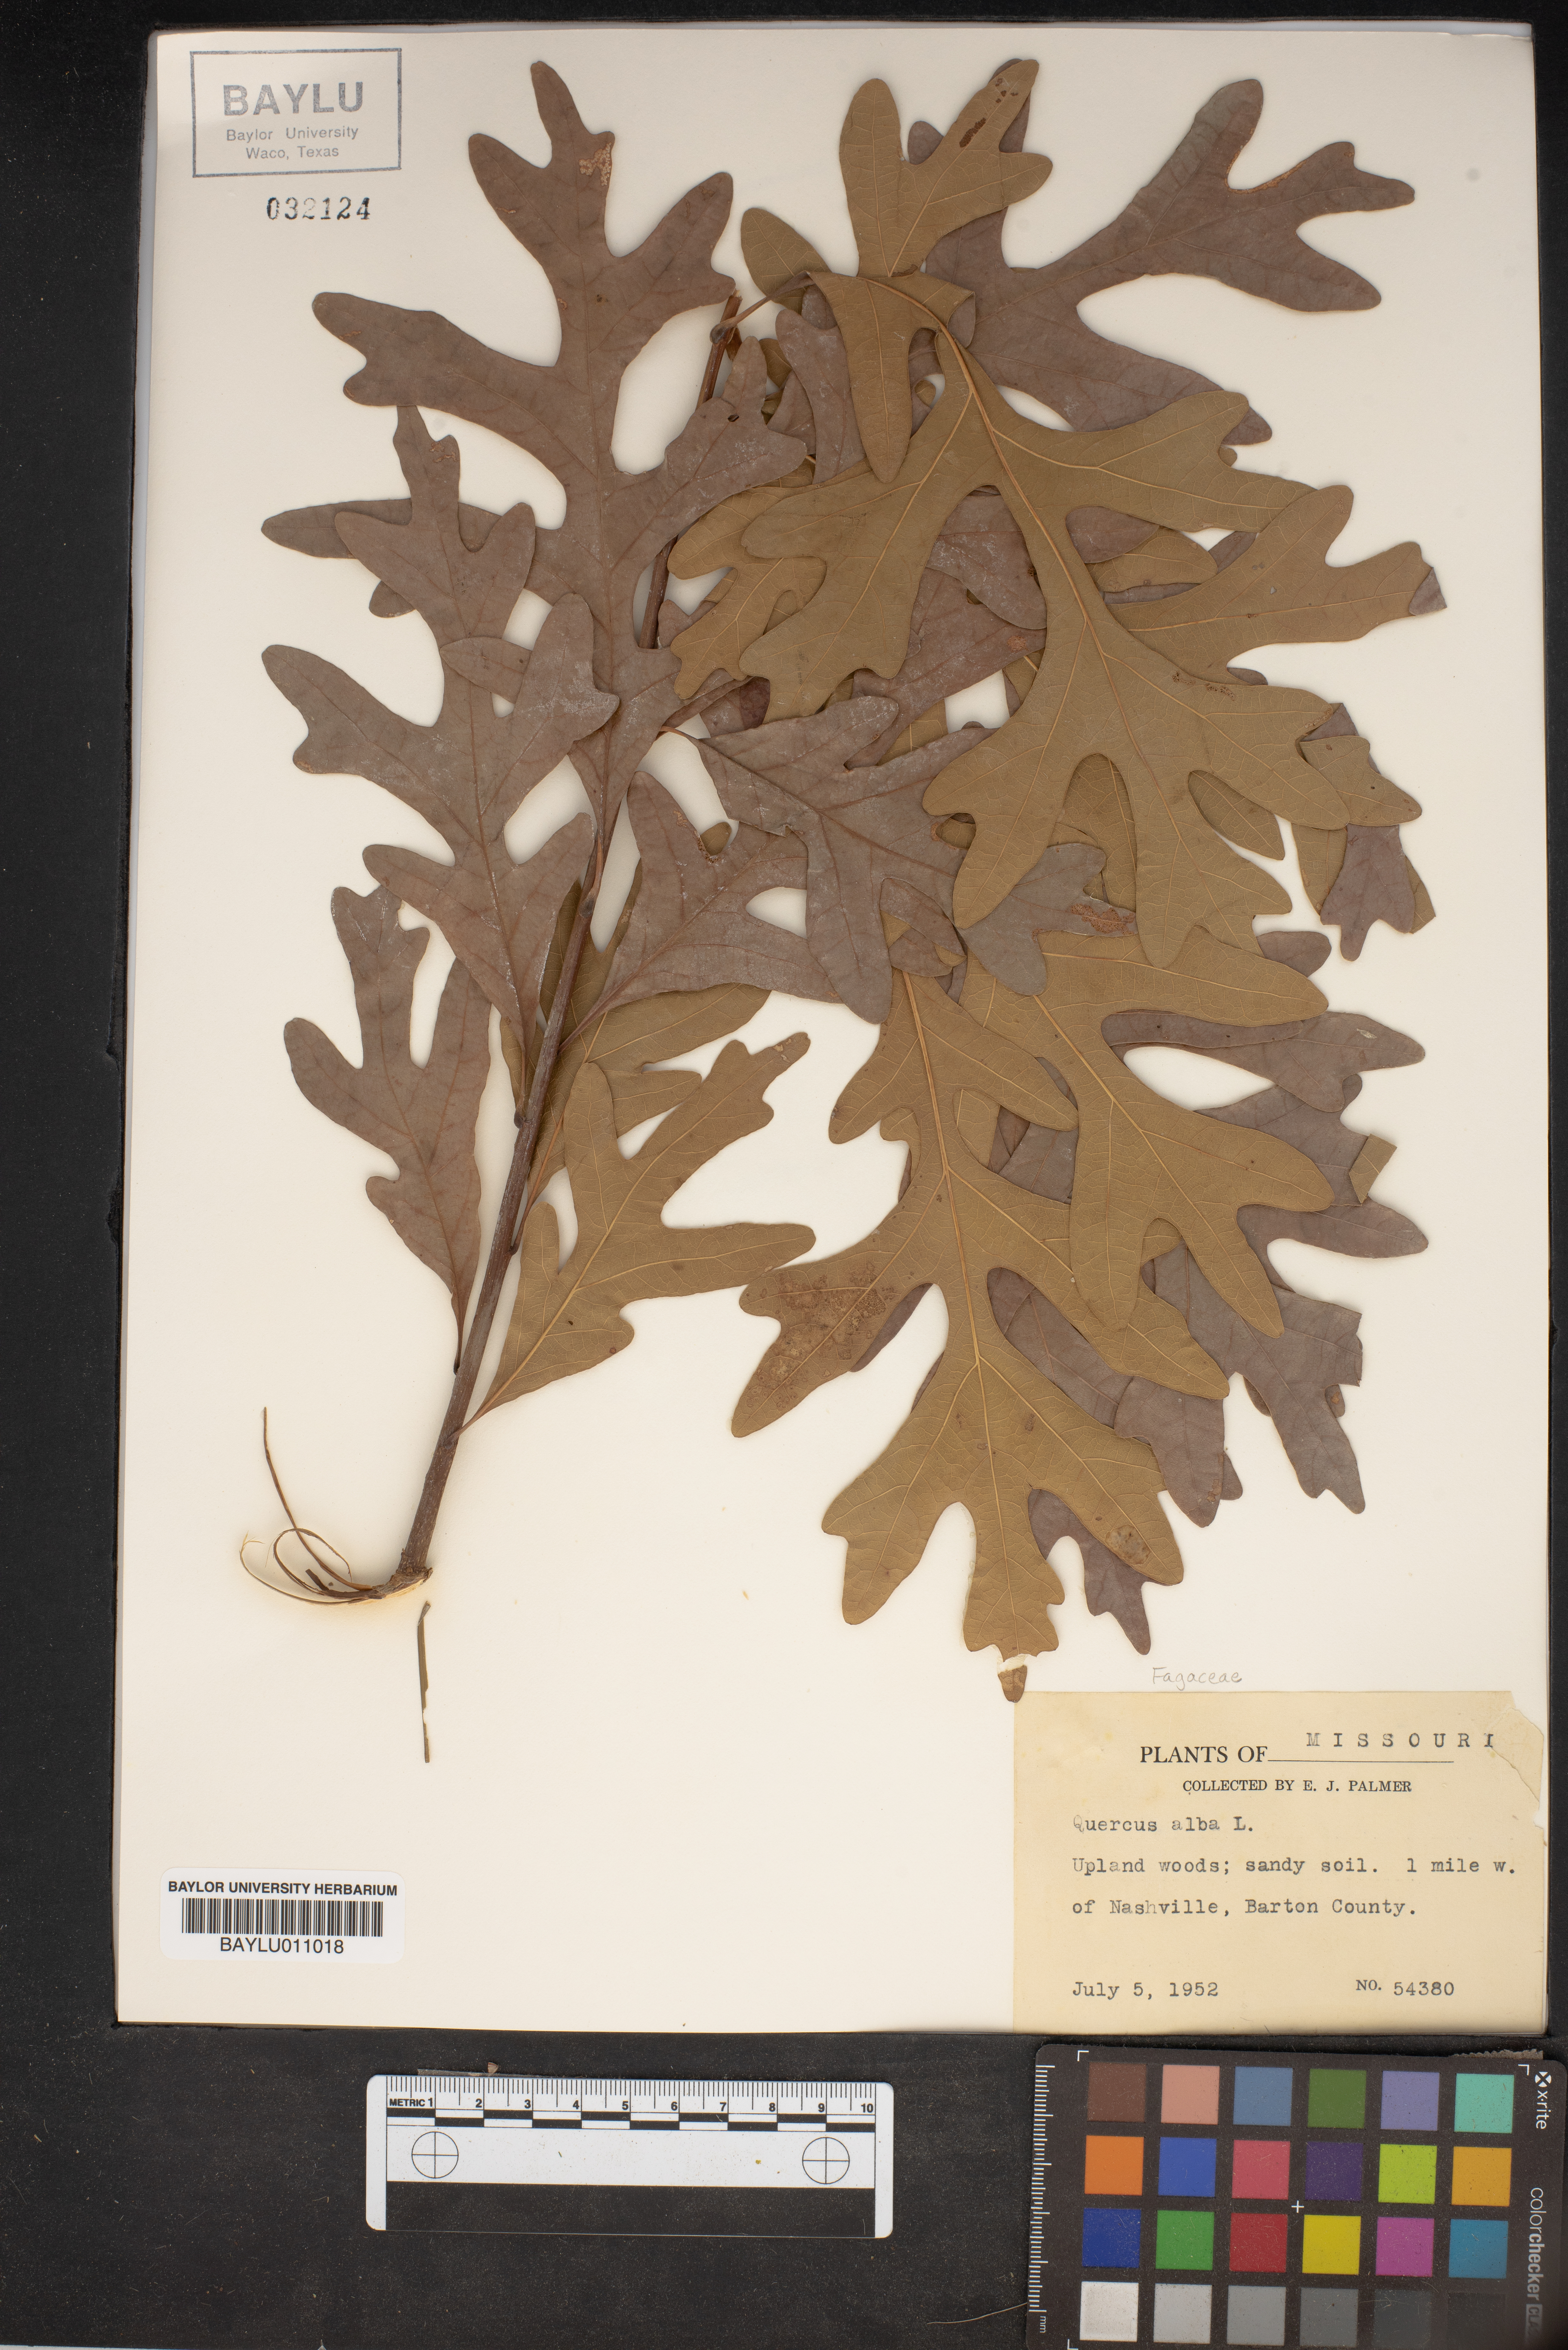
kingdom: Plantae
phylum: Tracheophyta
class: Magnoliopsida
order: Fagales
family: Fagaceae
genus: Quercus
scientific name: Quercus alba
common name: White oak
